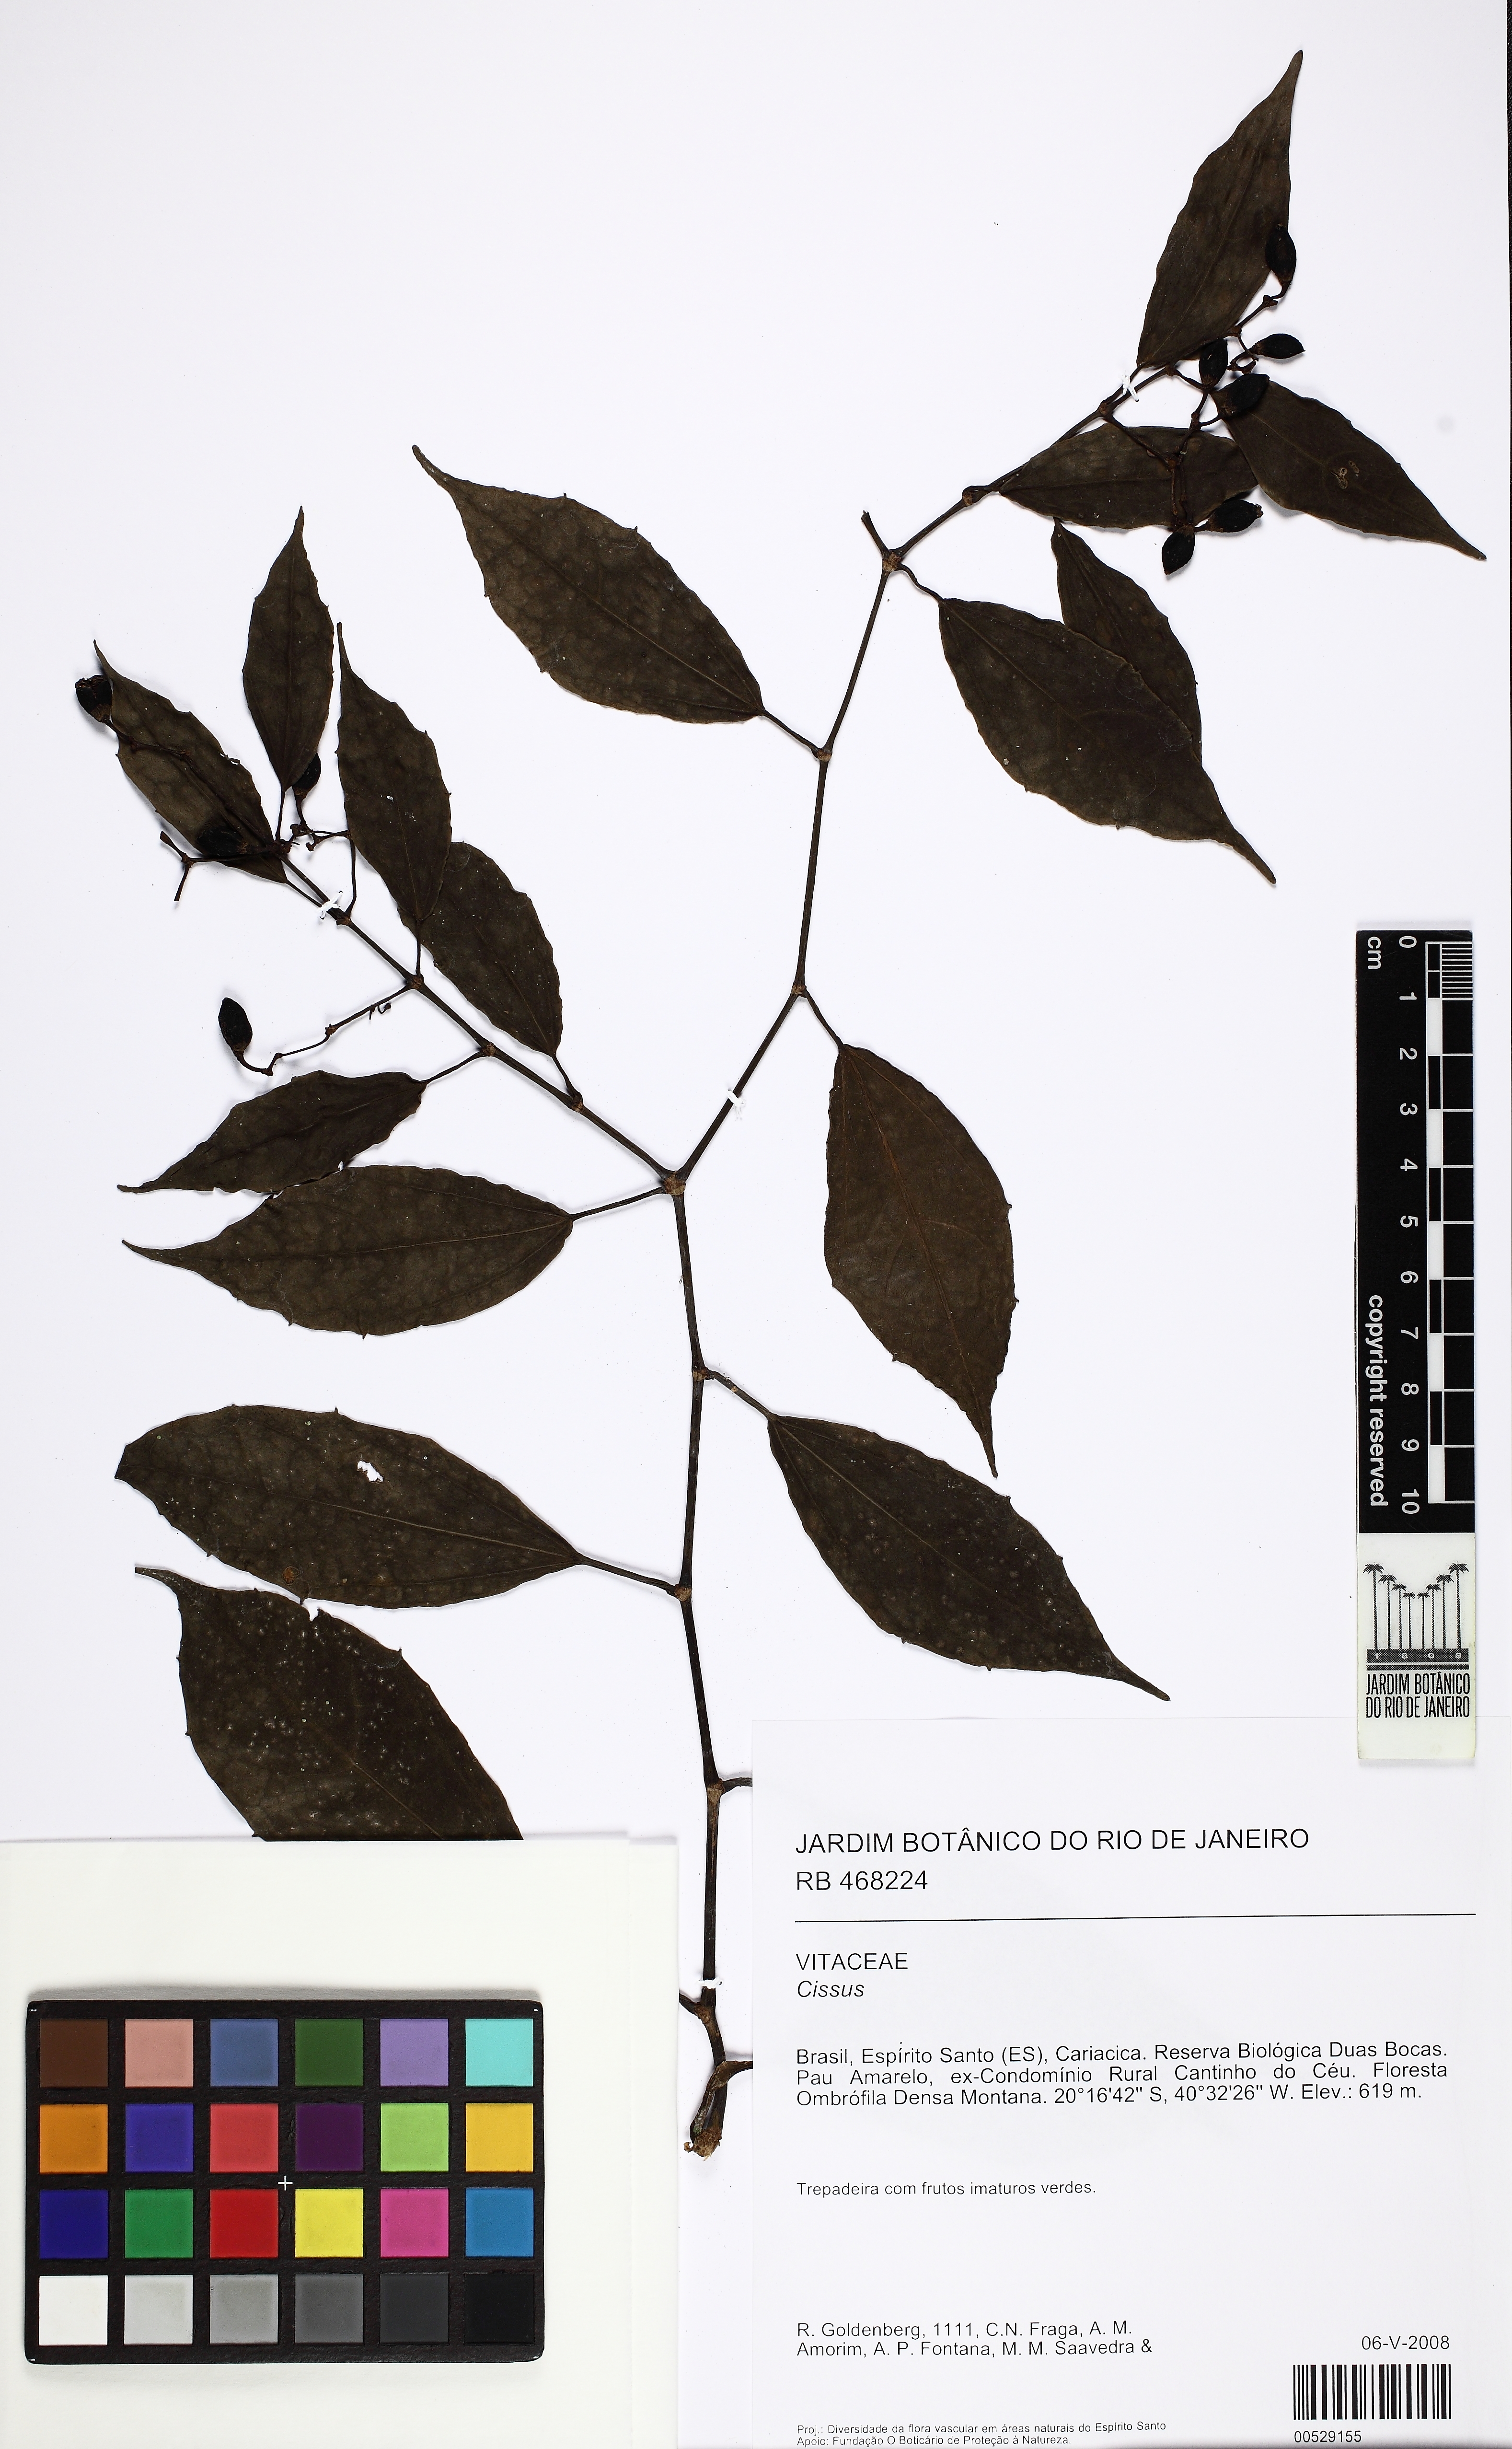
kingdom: Plantae
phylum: Tracheophyta
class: Magnoliopsida
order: Vitales
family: Vitaceae
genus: Cissus
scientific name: Cissus
